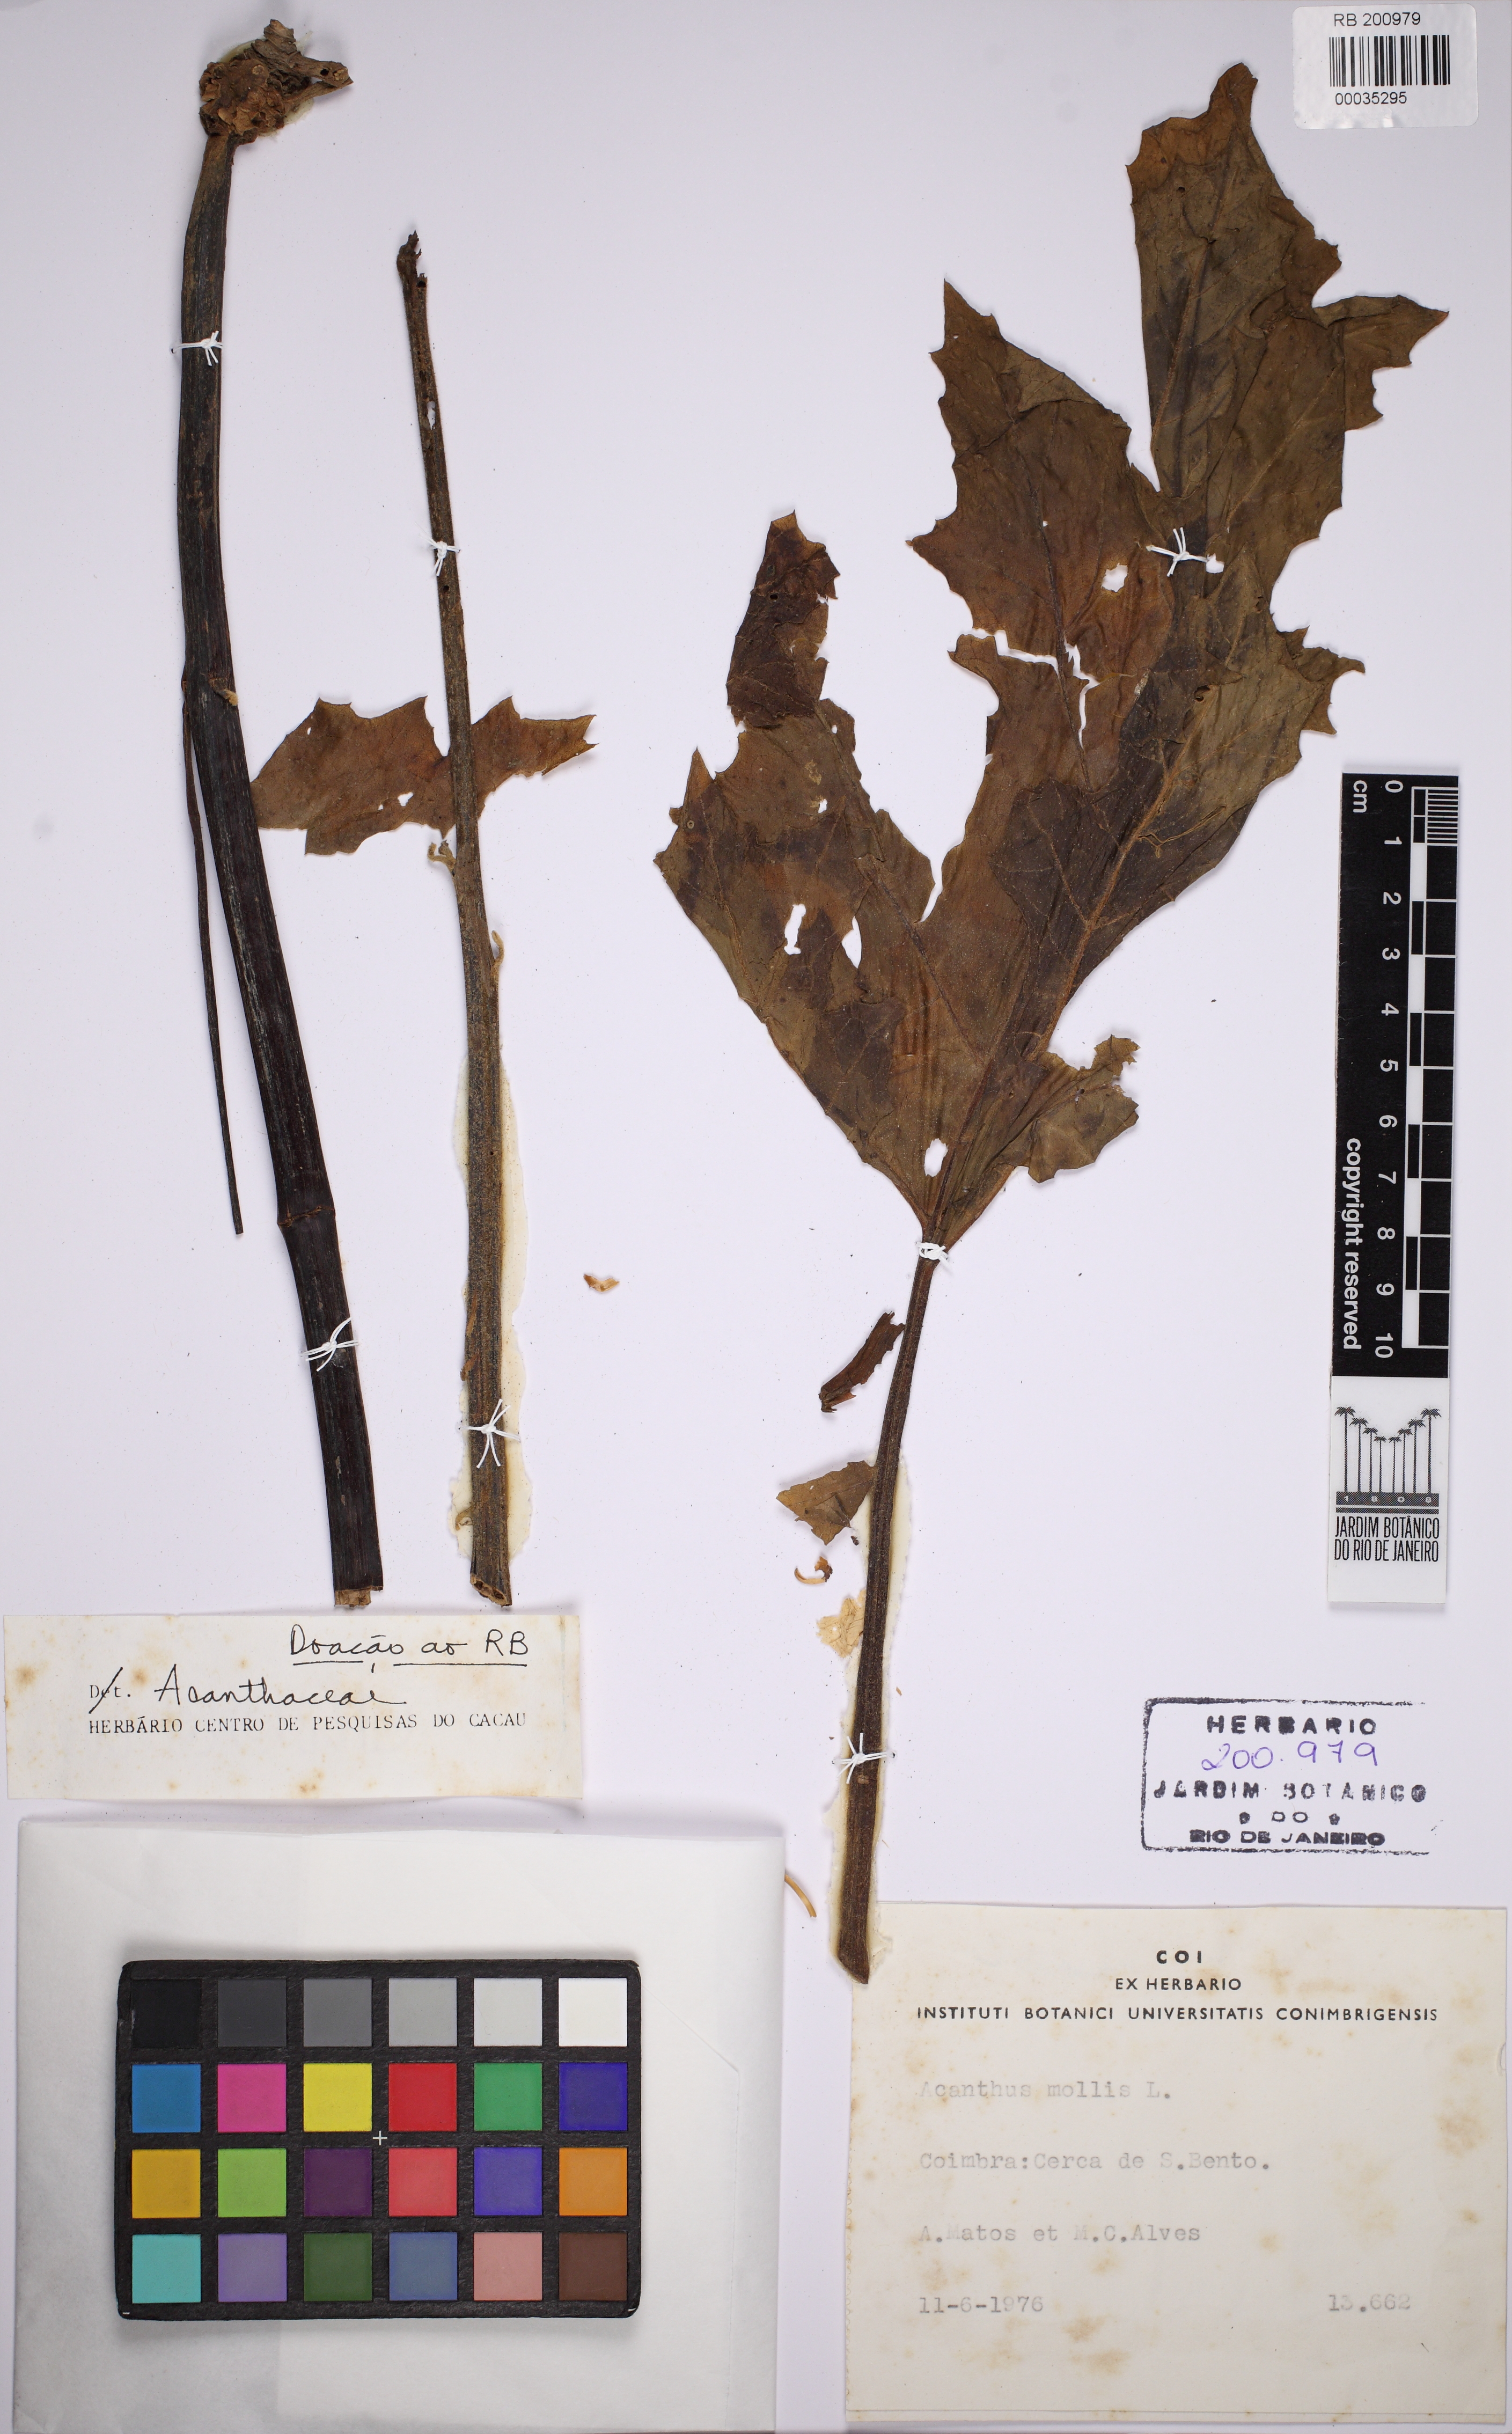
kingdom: Plantae
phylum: Tracheophyta
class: Magnoliopsida
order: Lamiales
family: Acanthaceae
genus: Acanthus
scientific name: Acanthus mollis
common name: Bear's-breech
